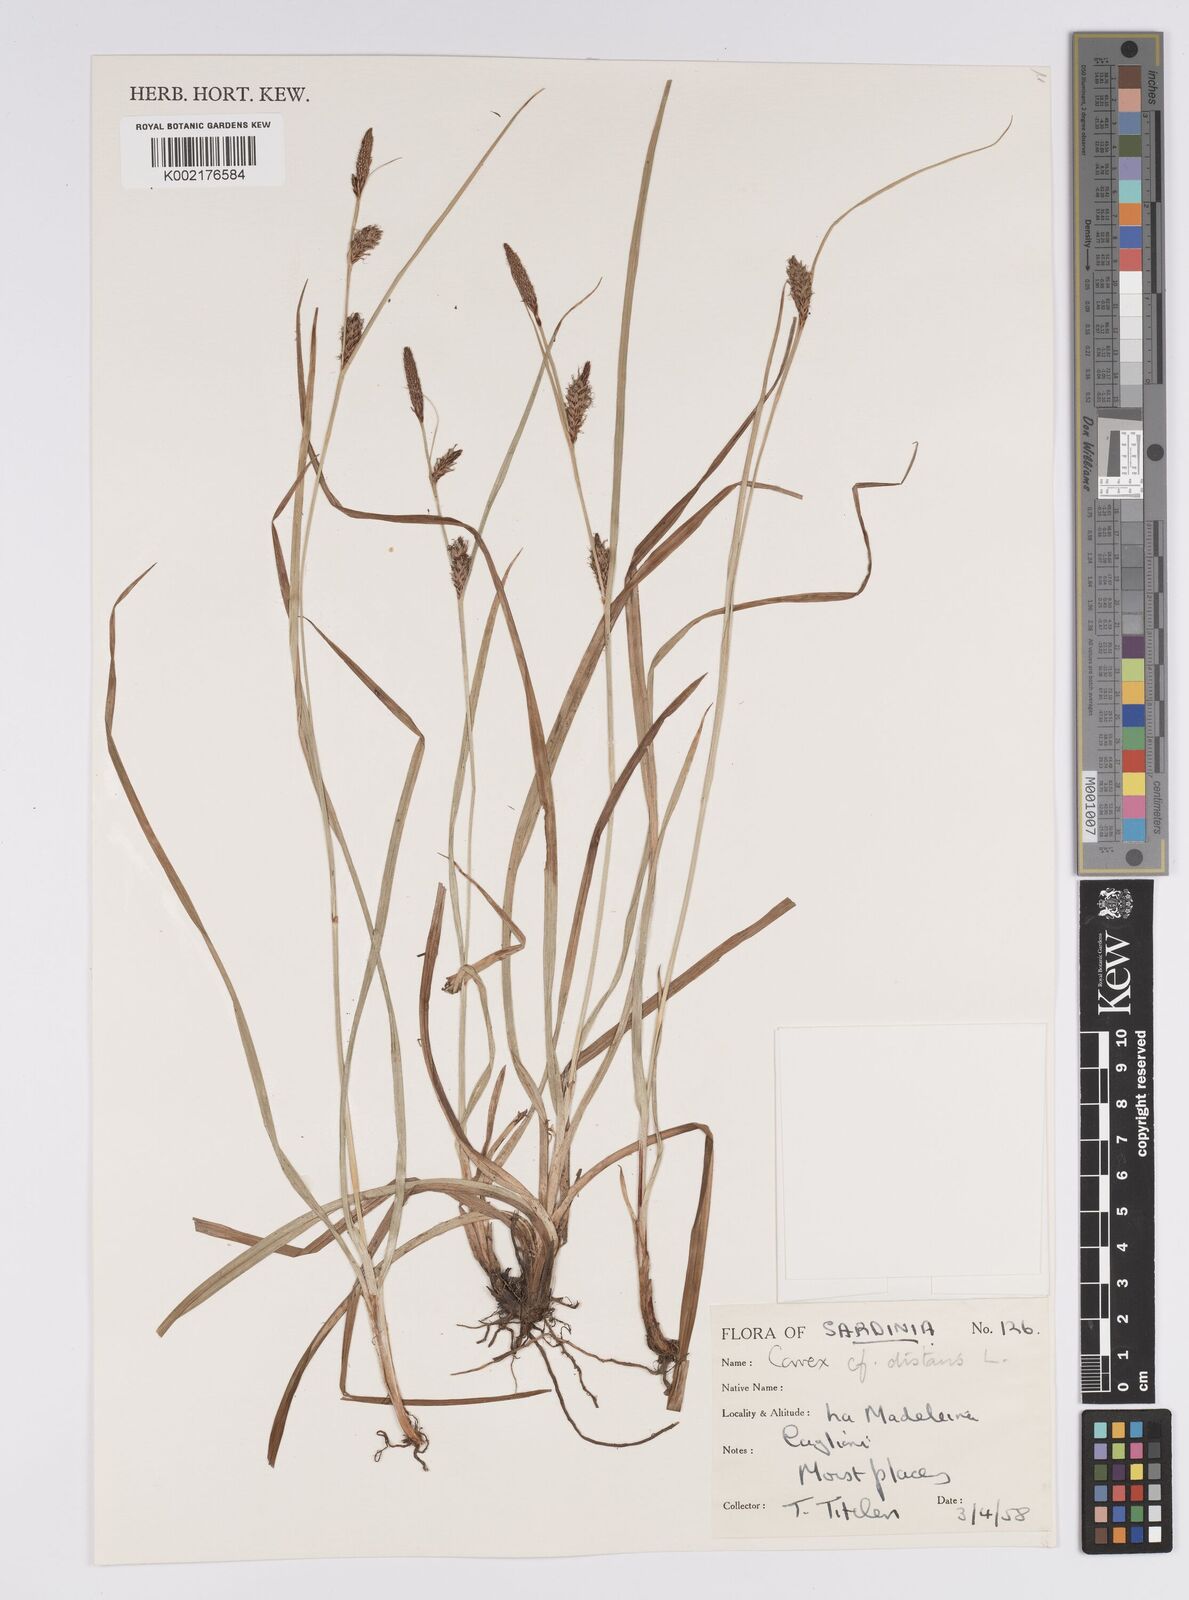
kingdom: Plantae
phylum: Tracheophyta
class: Liliopsida
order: Poales
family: Cyperaceae
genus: Carex
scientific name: Carex distans
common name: Distant sedge
